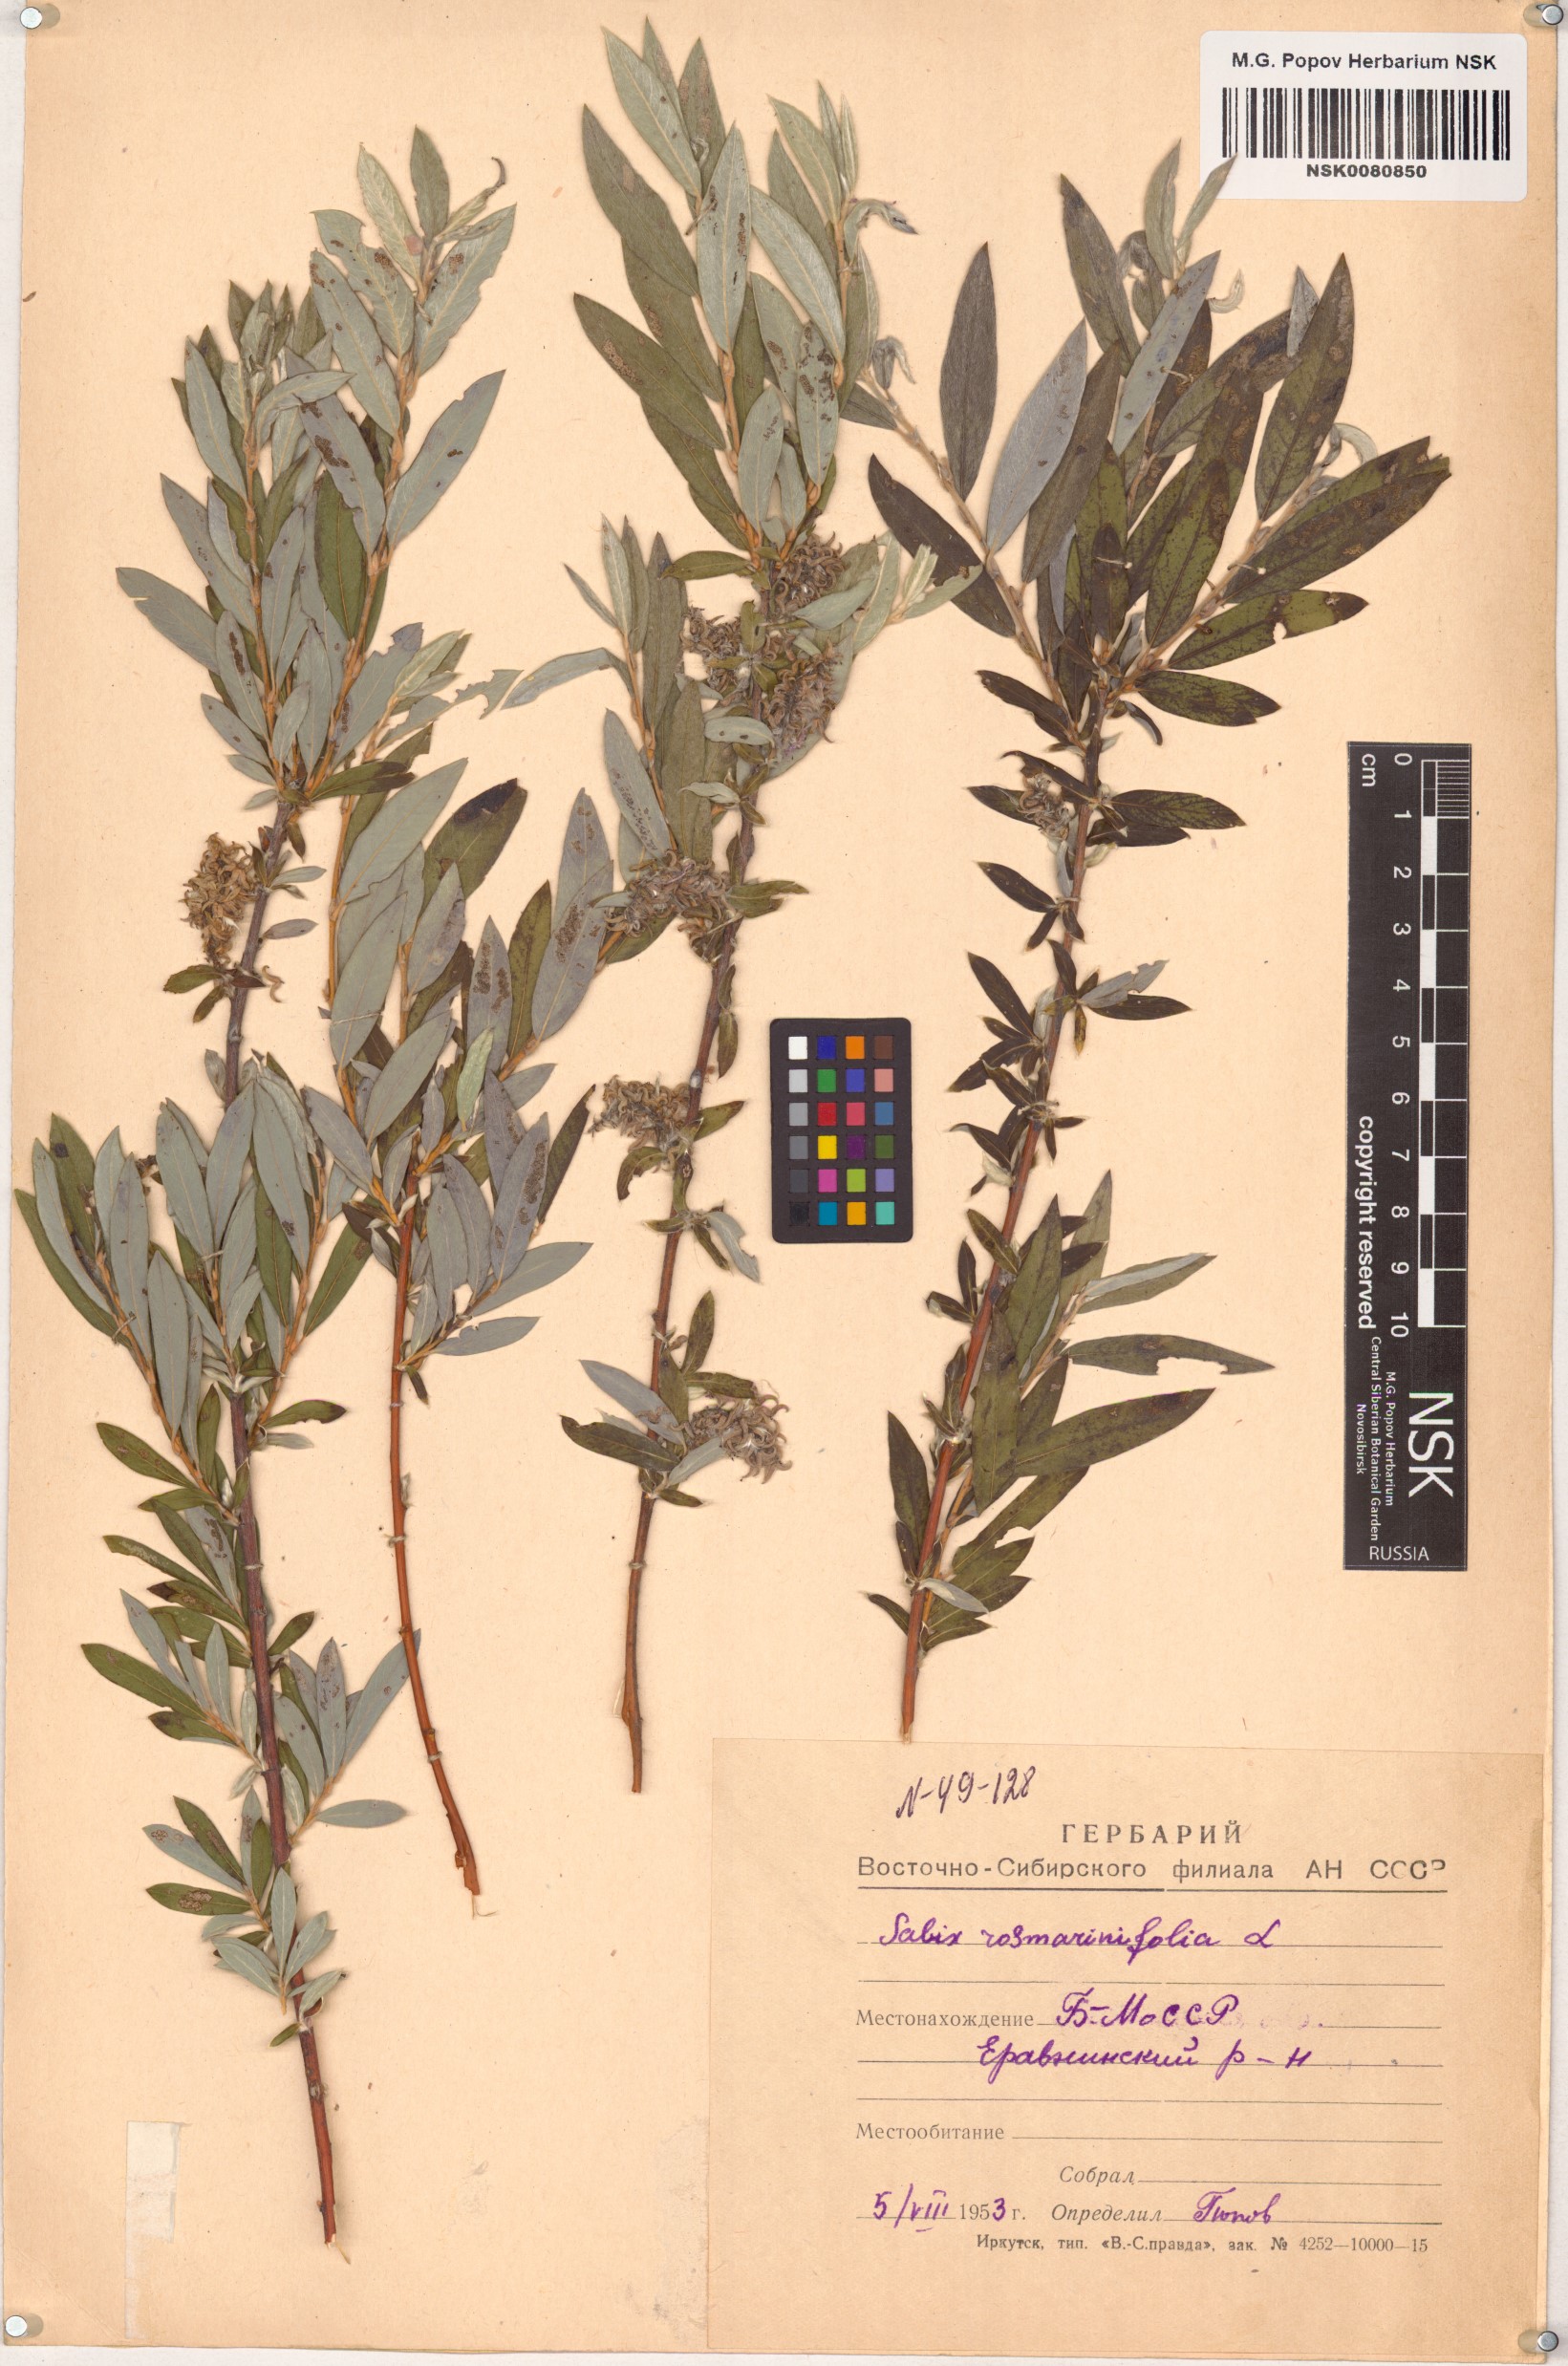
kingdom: Plantae
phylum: Tracheophyta
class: Magnoliopsida
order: Malpighiales
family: Salicaceae
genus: Salix
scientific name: Salix rosmarinifolia
